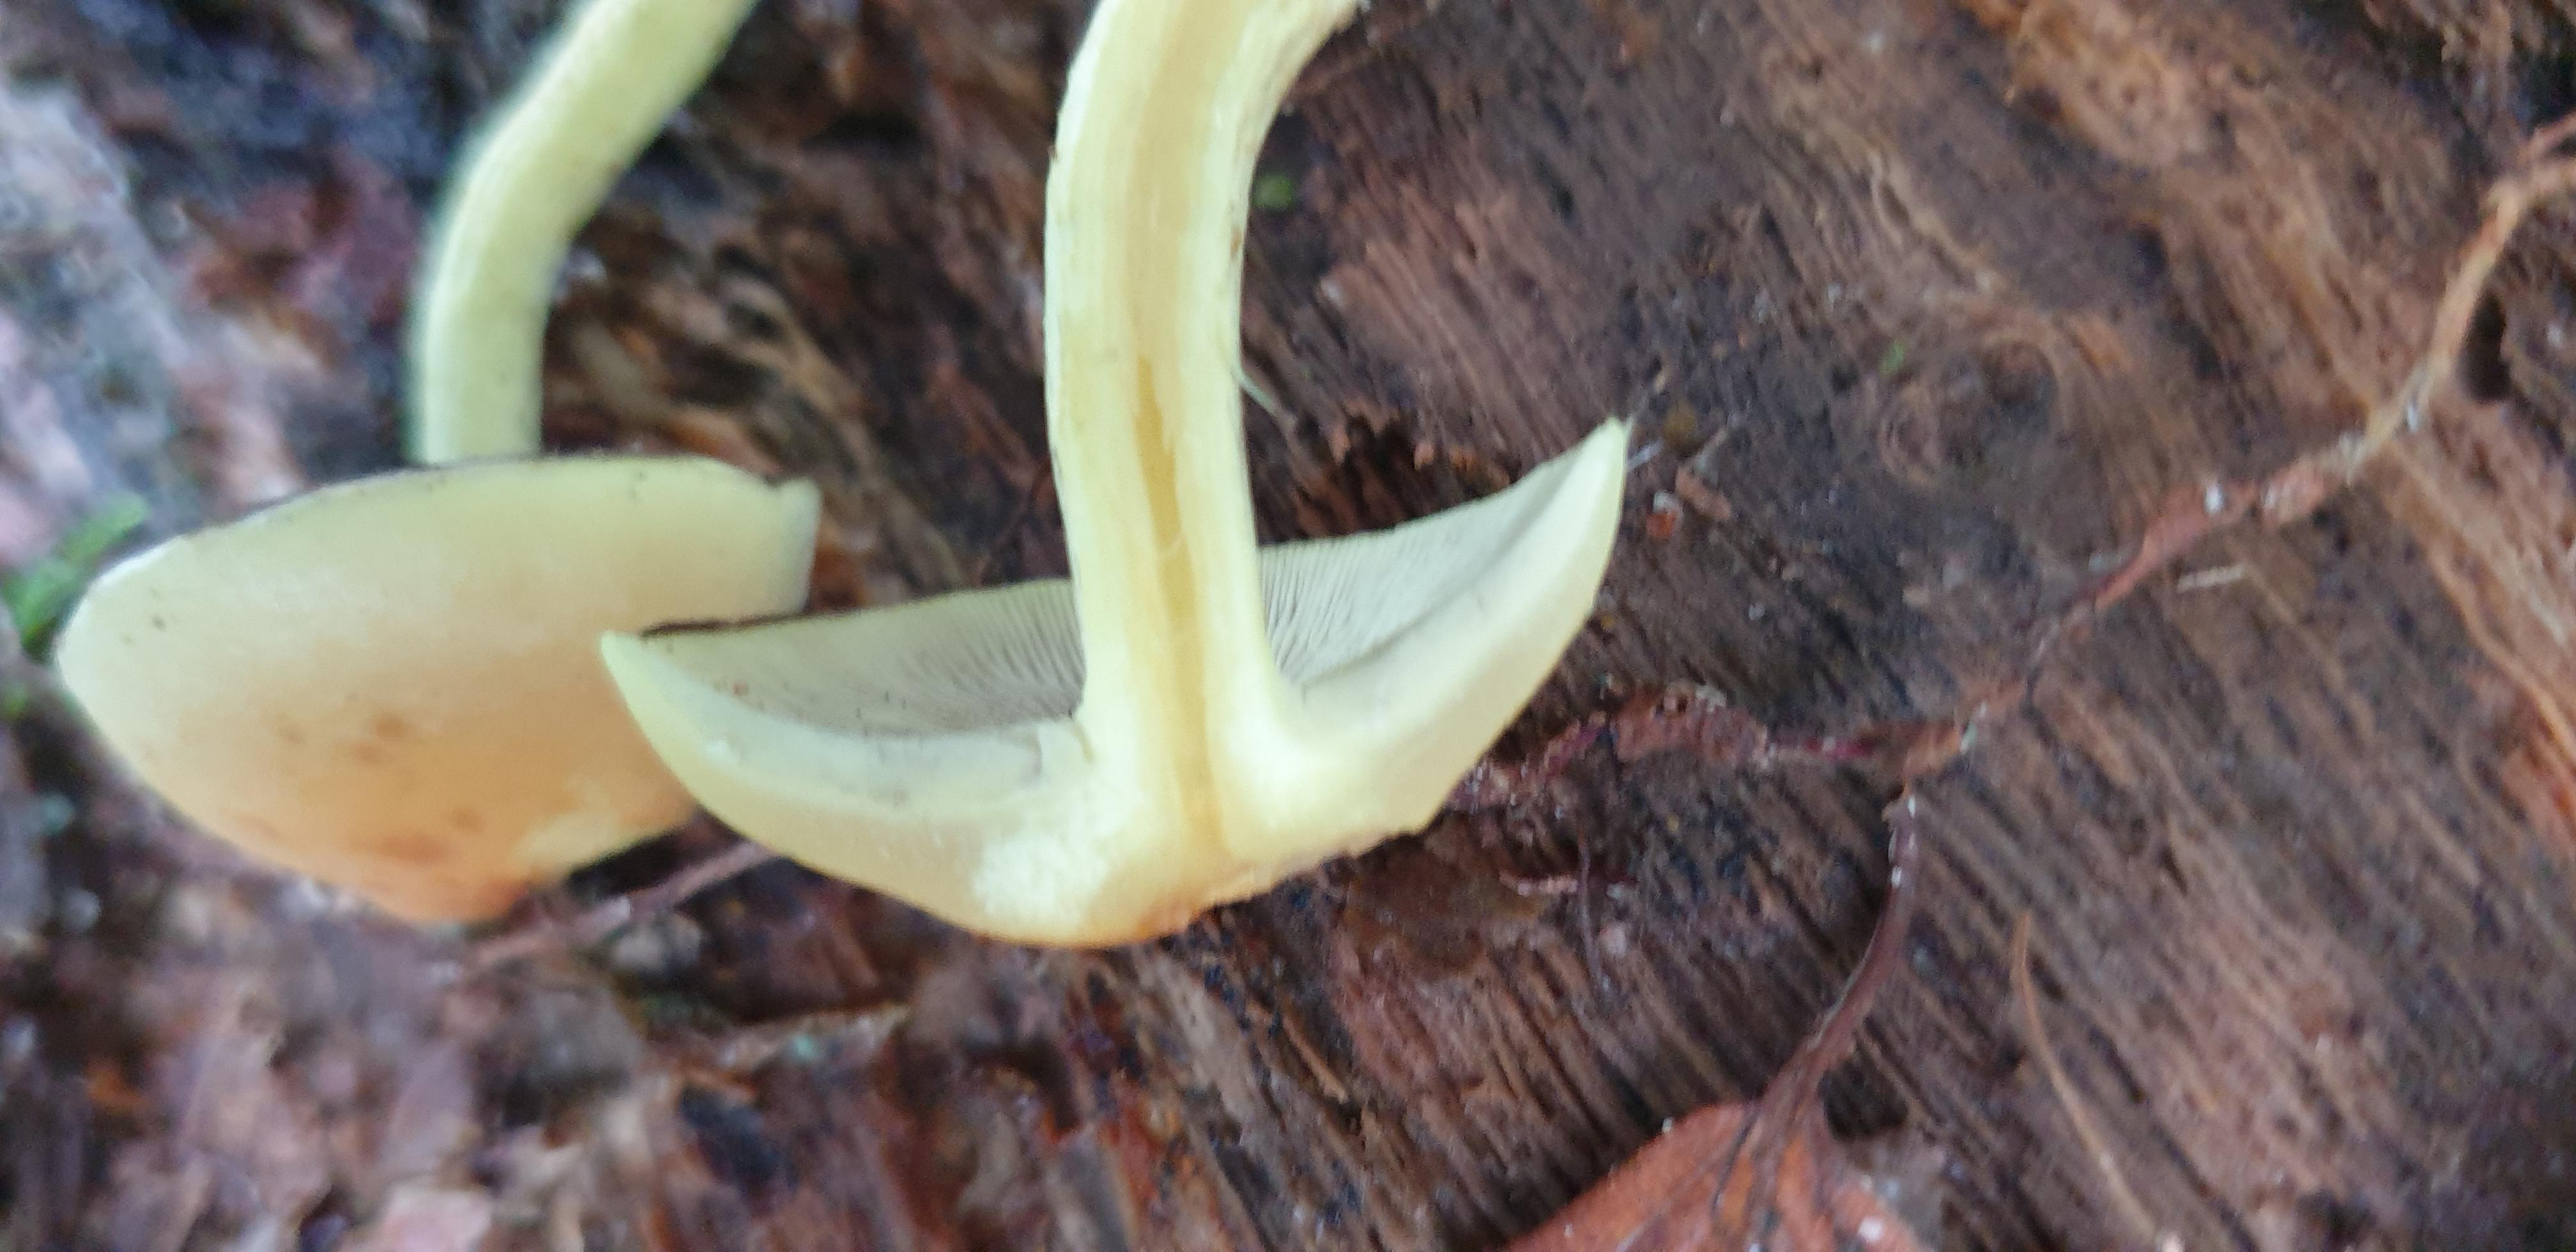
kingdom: Fungi
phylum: Basidiomycota
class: Agaricomycetes
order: Agaricales
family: Strophariaceae
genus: Hypholoma
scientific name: Hypholoma fasciculare
